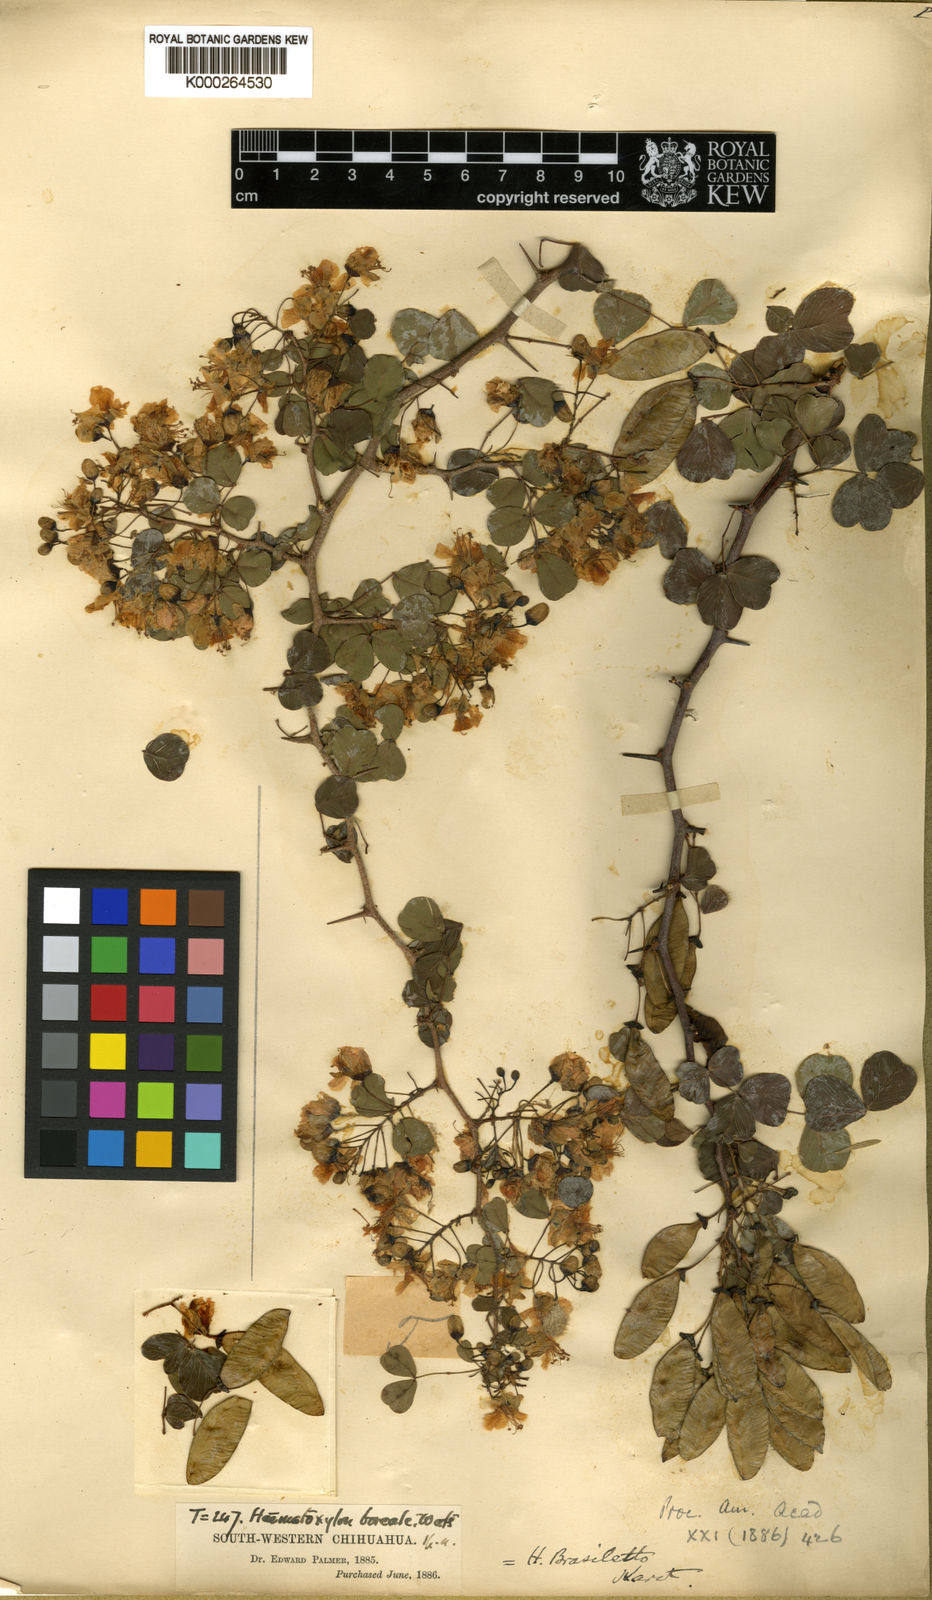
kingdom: Plantae
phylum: Tracheophyta
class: Magnoliopsida
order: Fabales
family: Fabaceae
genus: Haematoxylum
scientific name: Haematoxylum brasiletto
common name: Peachwood
